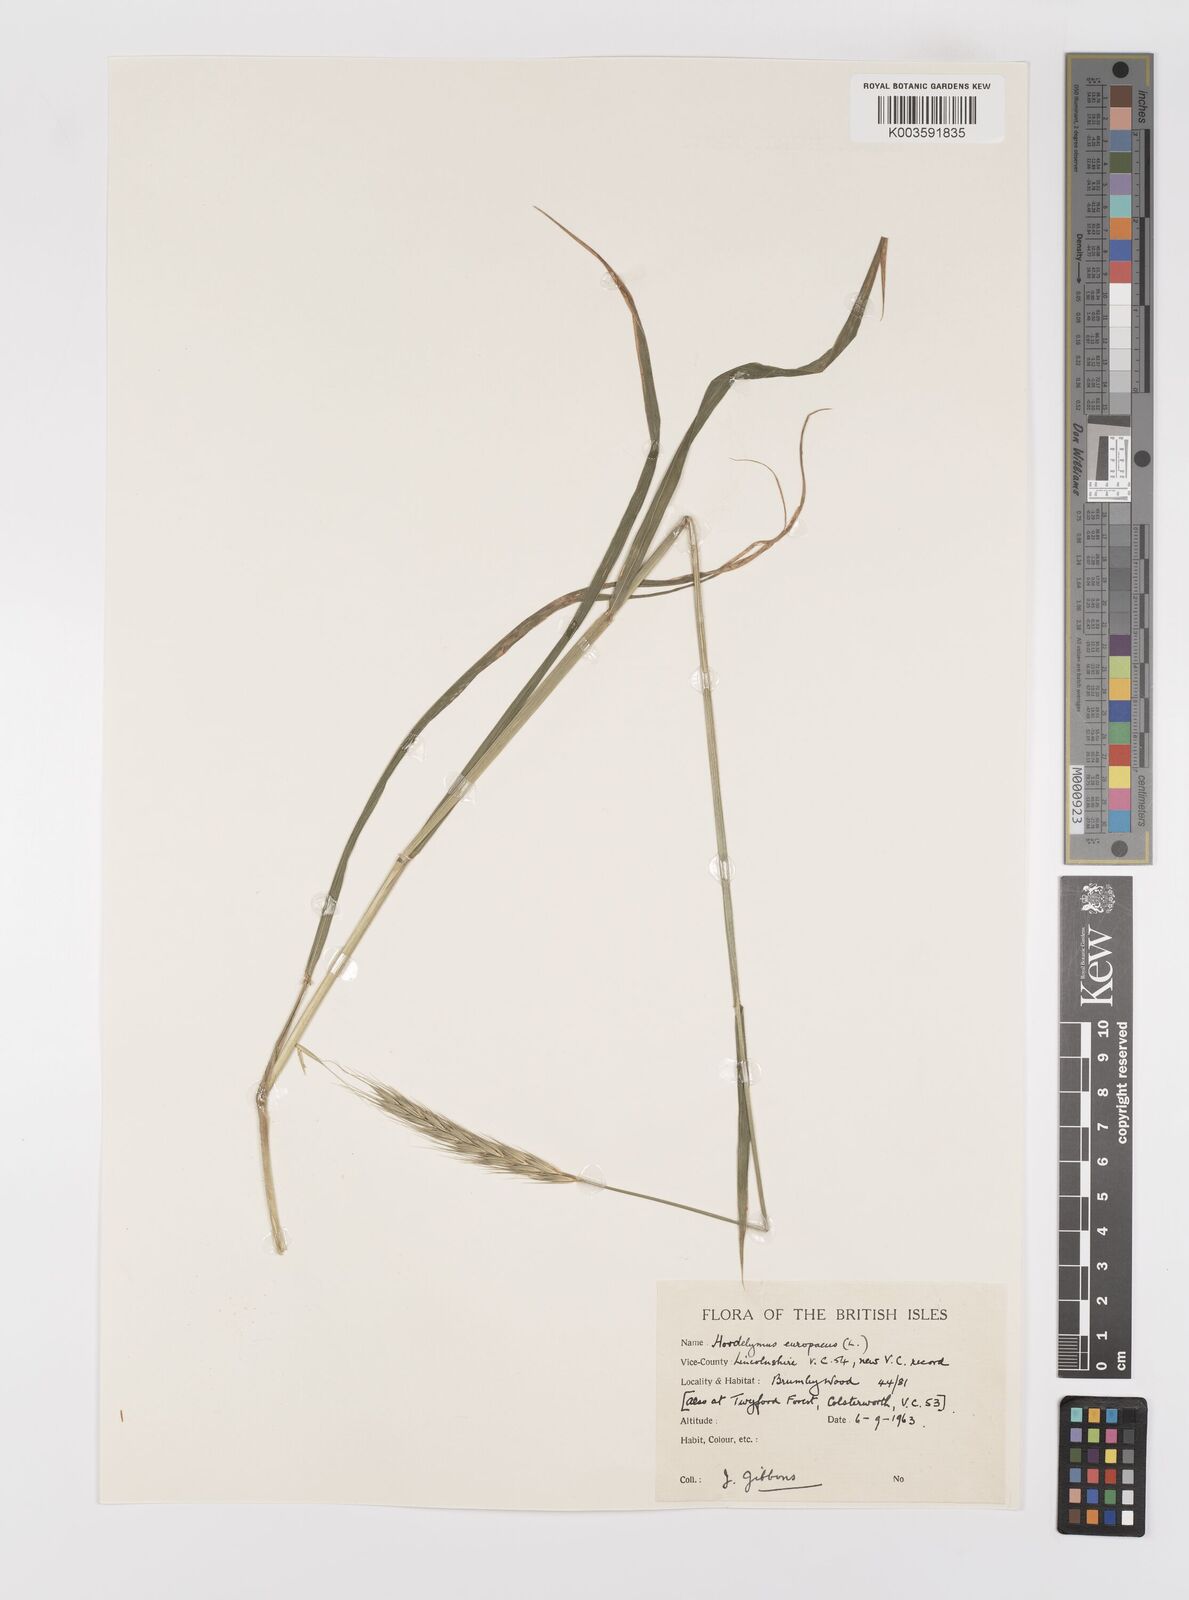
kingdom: Plantae
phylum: Tracheophyta
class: Liliopsida
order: Poales
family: Poaceae
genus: Hordelymus
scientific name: Hordelymus europaeus
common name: Wood-barley
